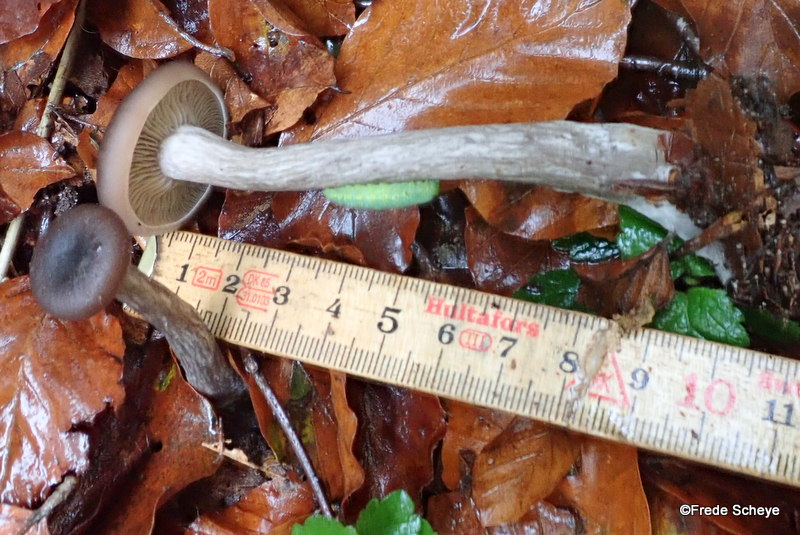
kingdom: Fungi
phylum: Basidiomycota
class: Agaricomycetes
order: Agaricales
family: Pseudoclitocybaceae
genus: Pseudoclitocybe
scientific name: Pseudoclitocybe cyathiformis
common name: almindelig bægertragthat
